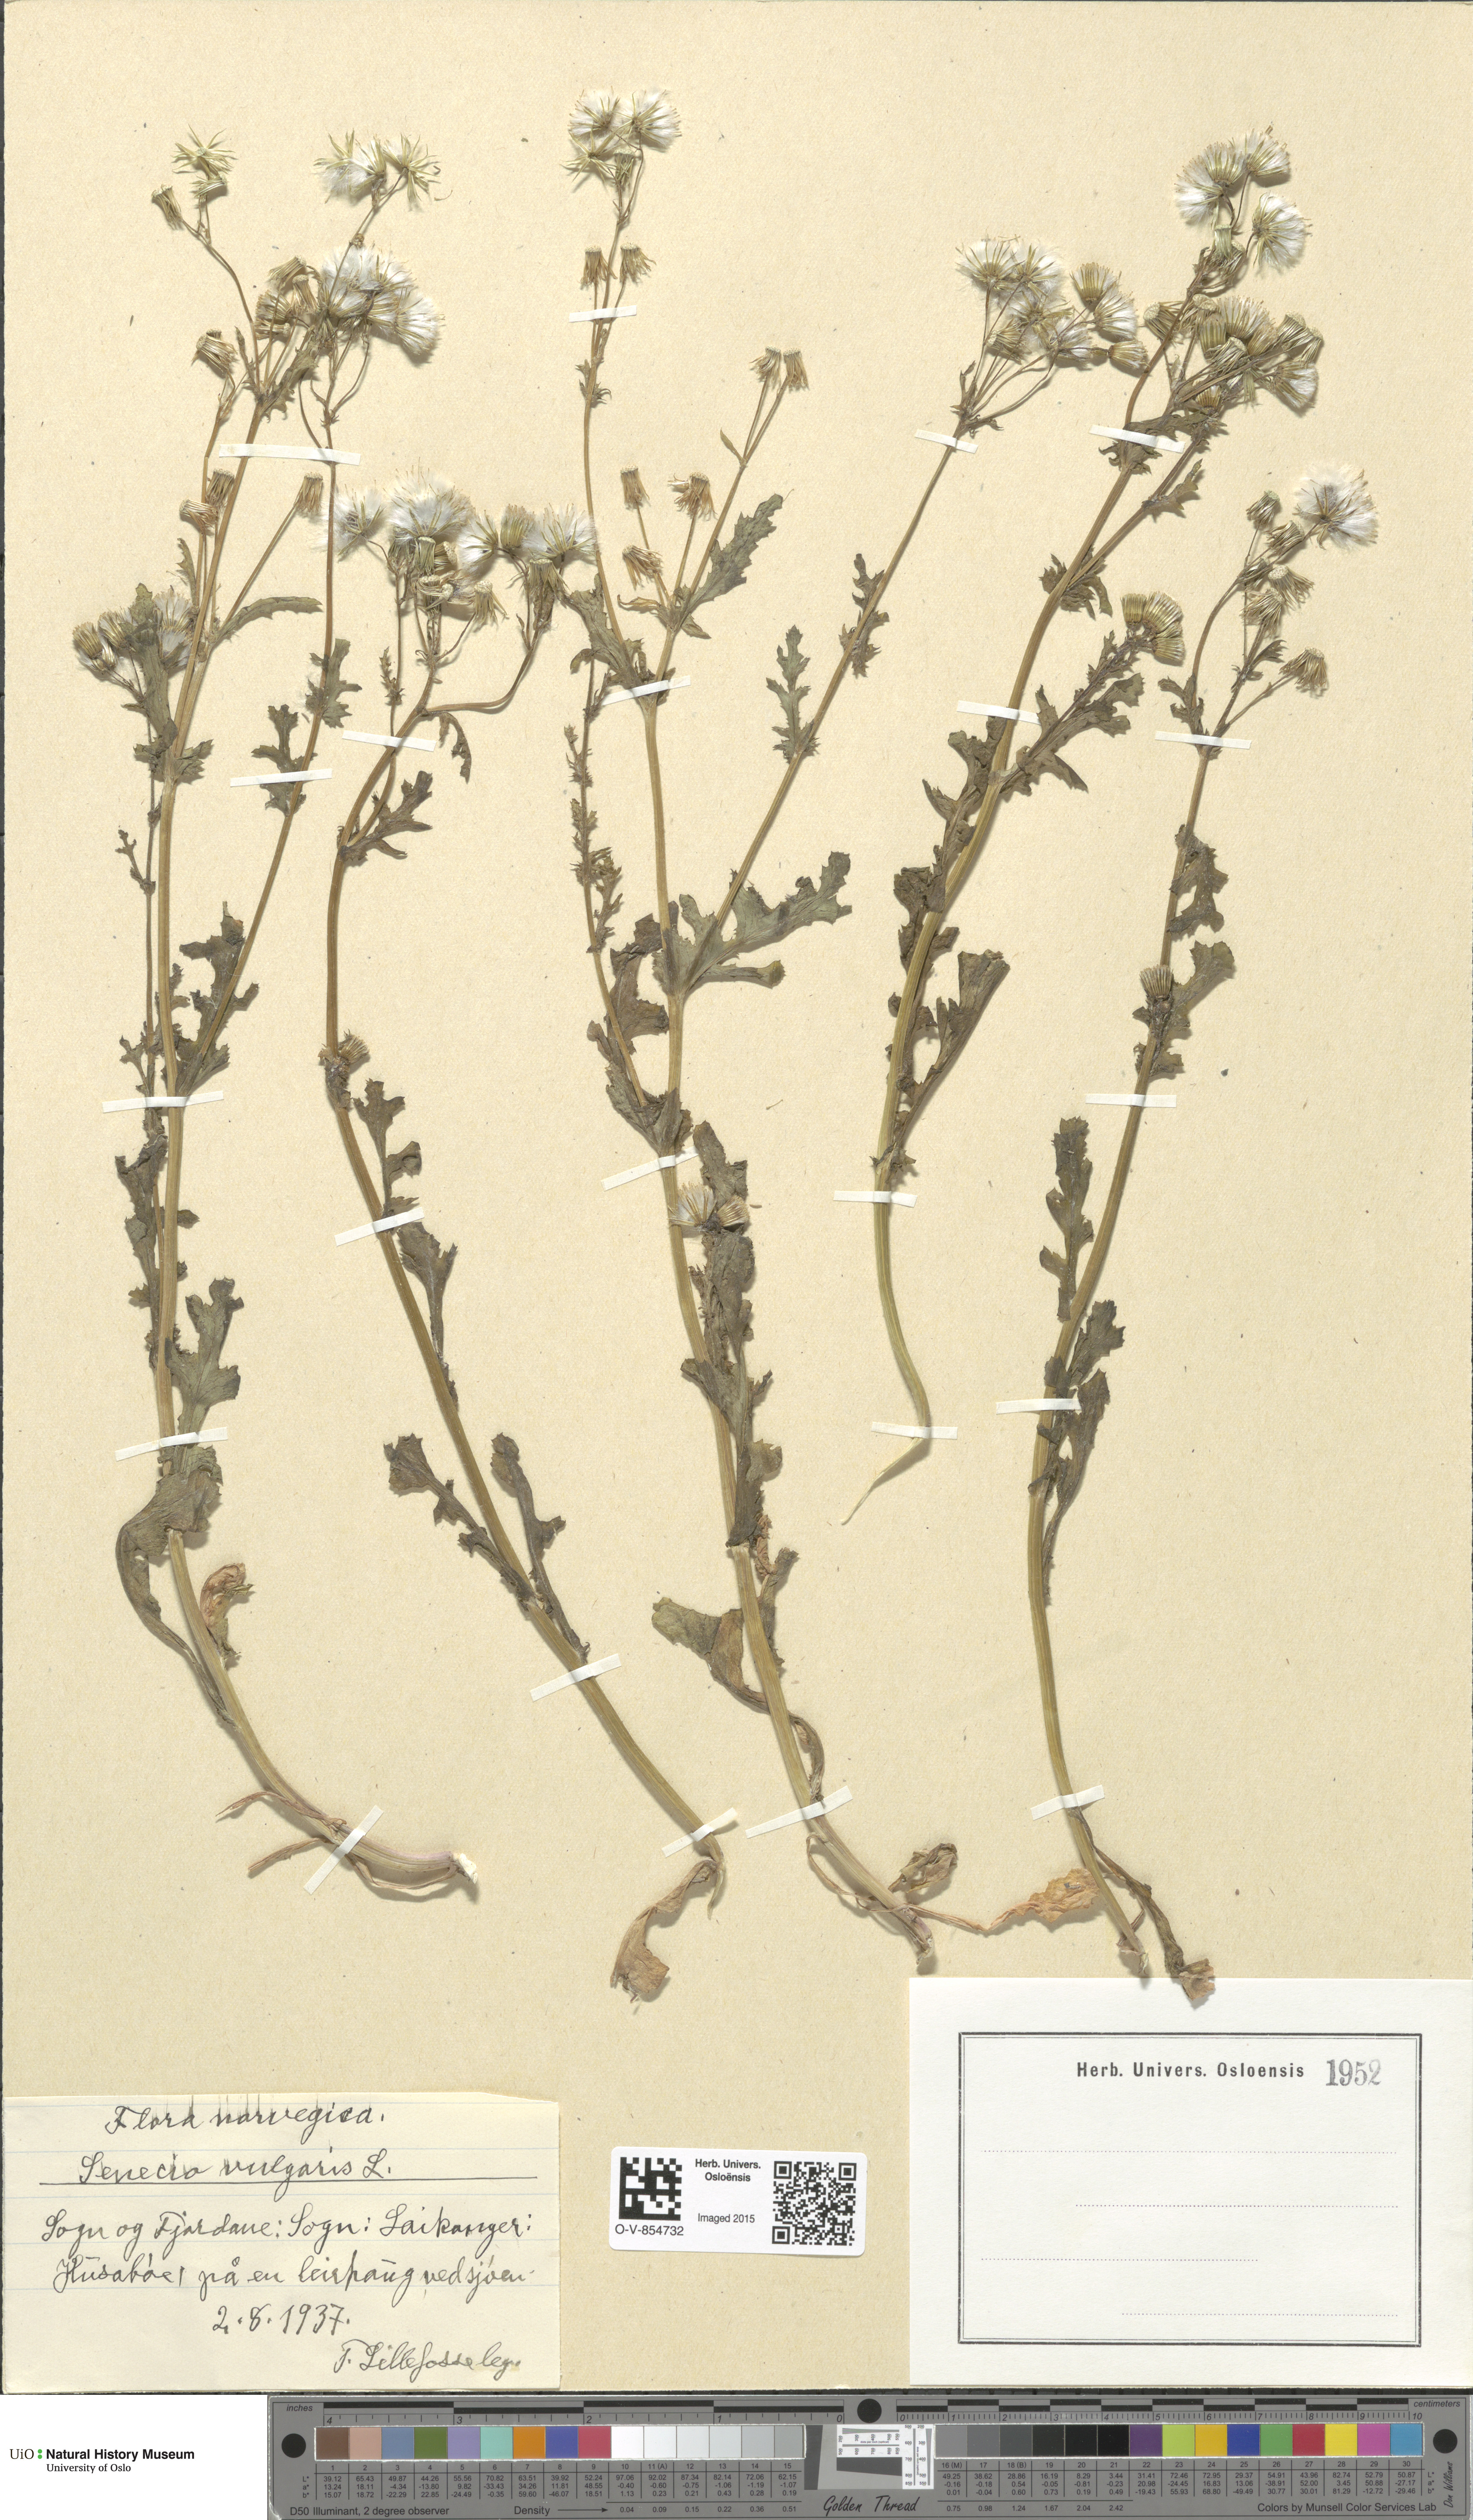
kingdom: Plantae
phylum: Tracheophyta
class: Magnoliopsida
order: Asterales
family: Asteraceae
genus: Senecio
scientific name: Senecio vulgaris
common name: Old-man-in-the-spring
